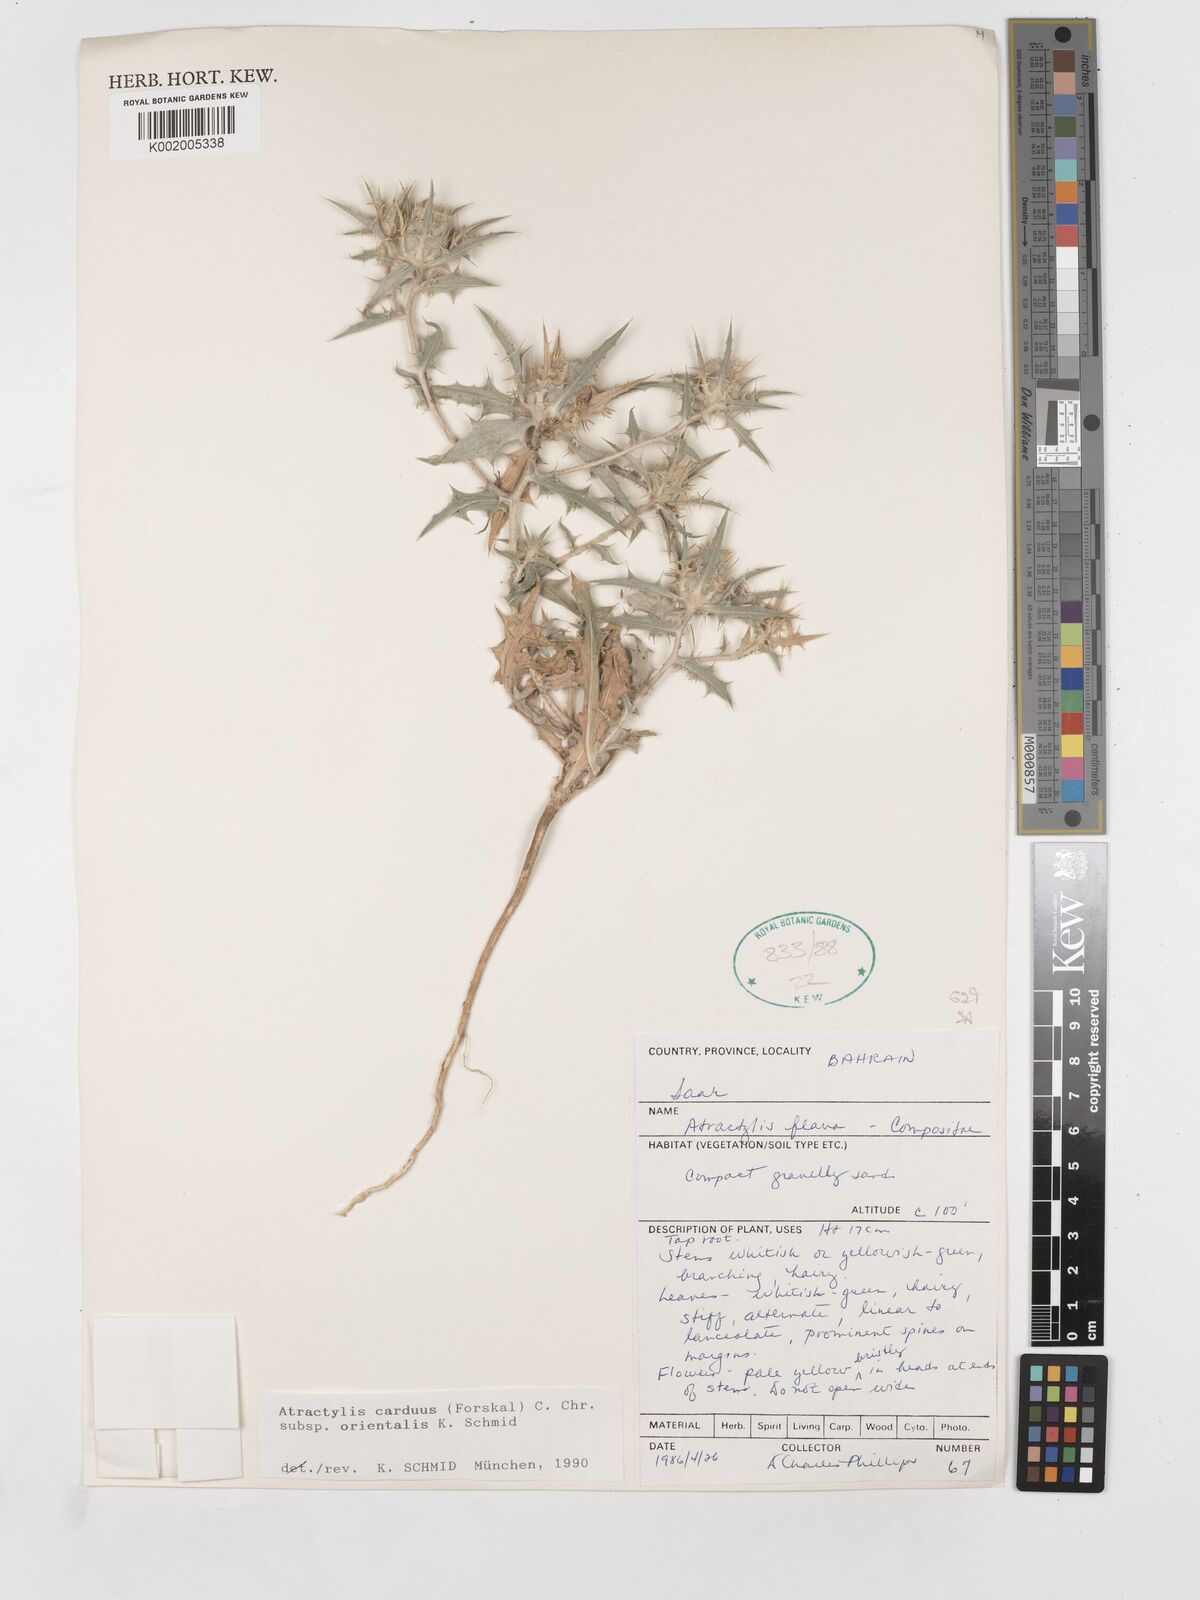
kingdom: Plantae
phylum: Tracheophyta
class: Magnoliopsida
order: Asterales
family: Asteraceae
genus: Atractylis
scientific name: Atractylis carduus
